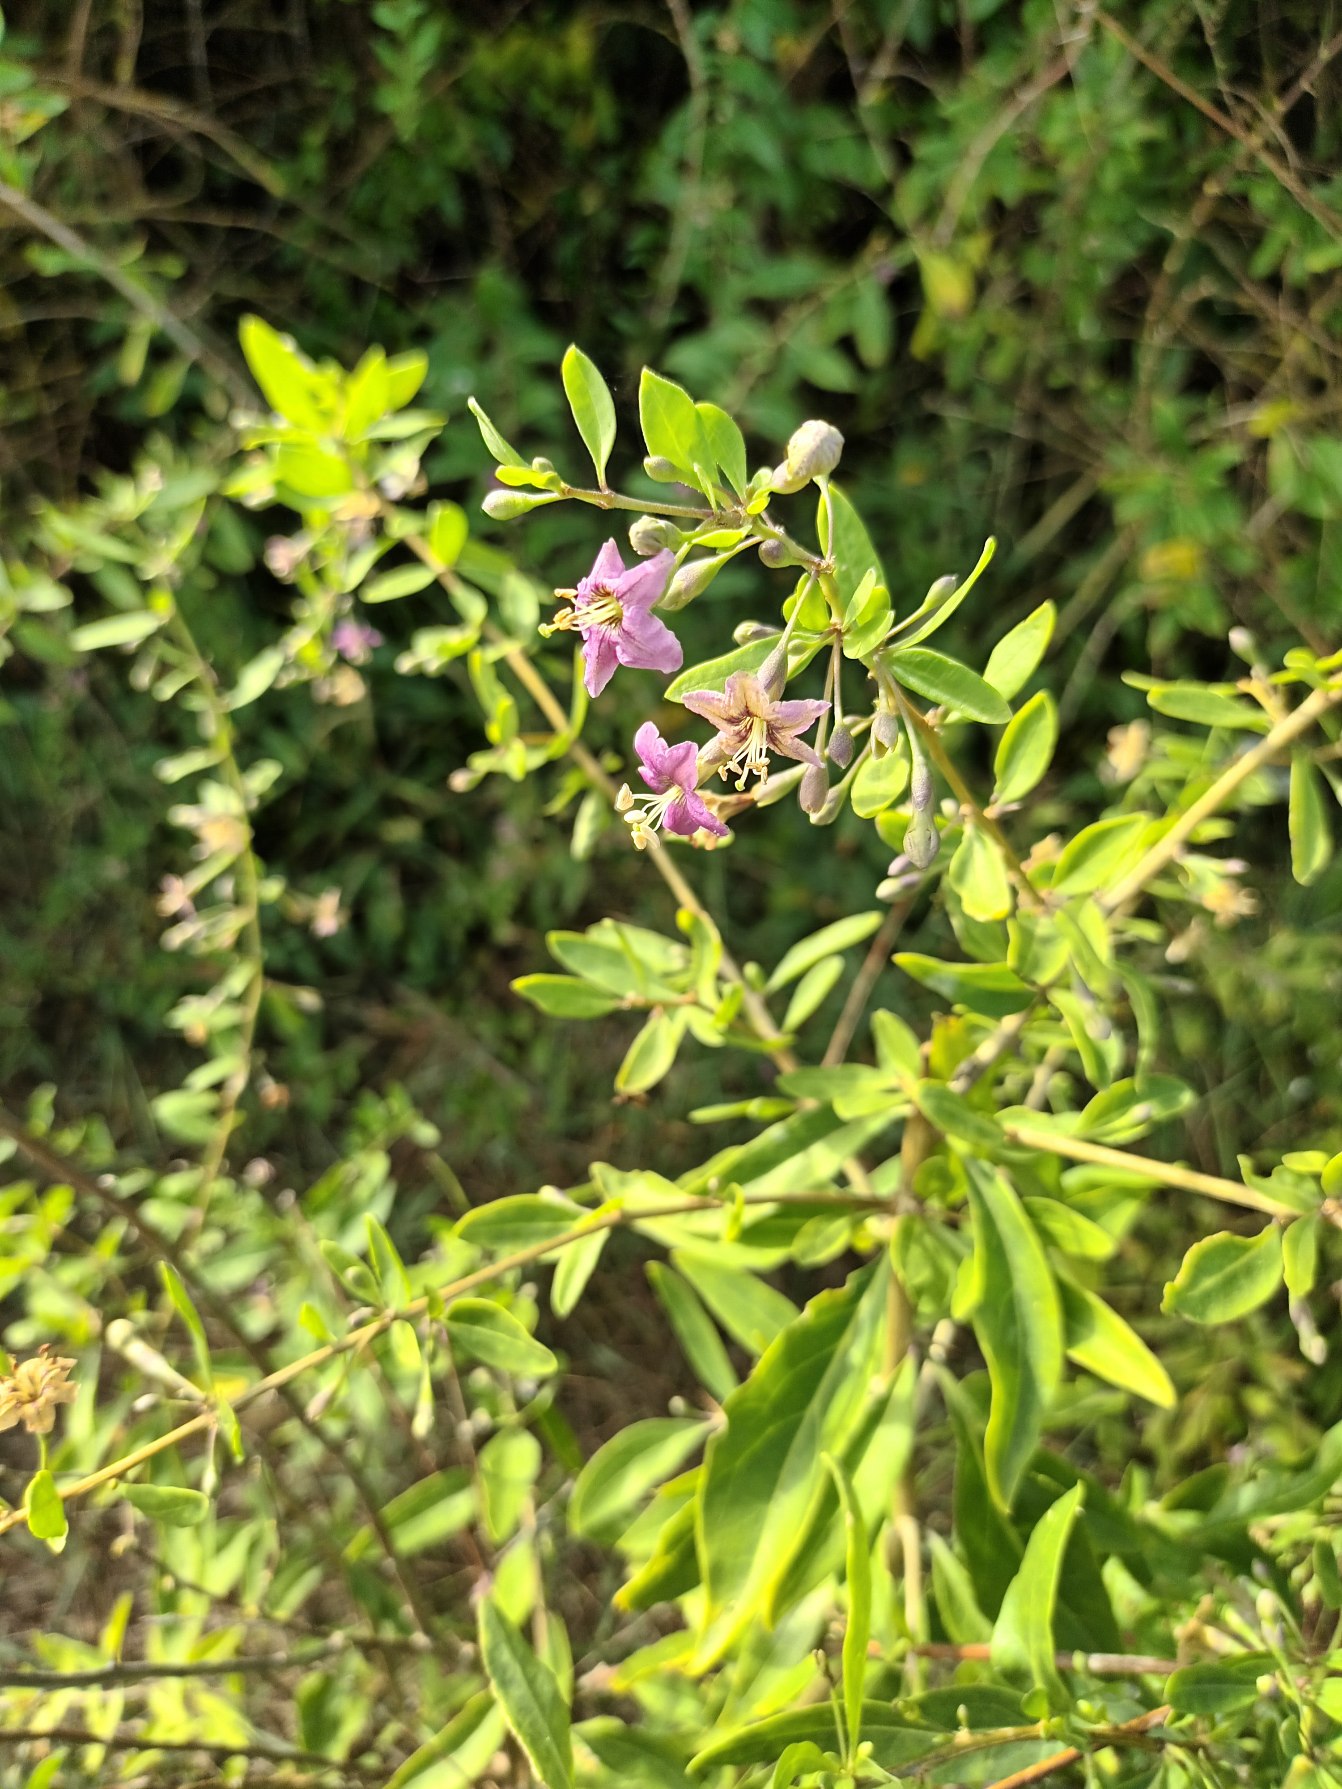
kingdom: Plantae
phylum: Tracheophyta
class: Magnoliopsida
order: Solanales
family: Solanaceae
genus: Lycium
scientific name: Lycium barbarum
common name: Bukketorn
